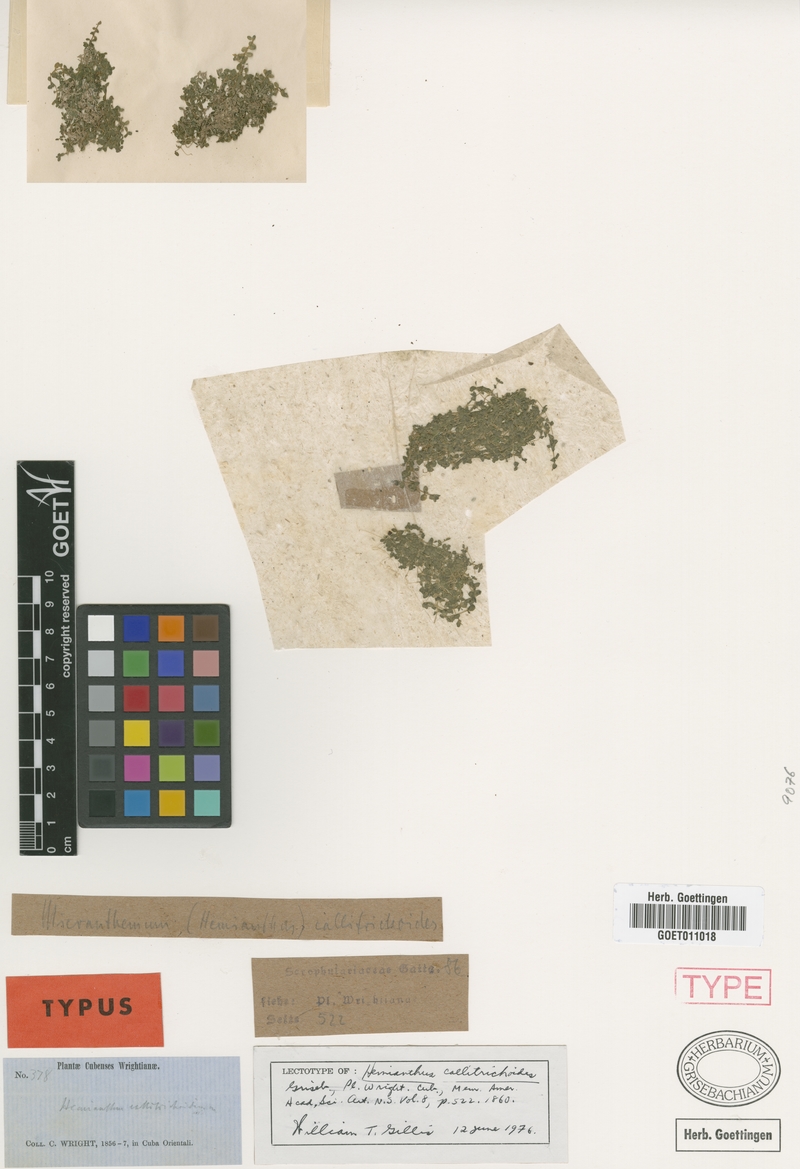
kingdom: Plantae
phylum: Tracheophyta
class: Magnoliopsida
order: Lamiales
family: Linderniaceae
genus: Micranthemum
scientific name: Micranthemum callitrichoides
